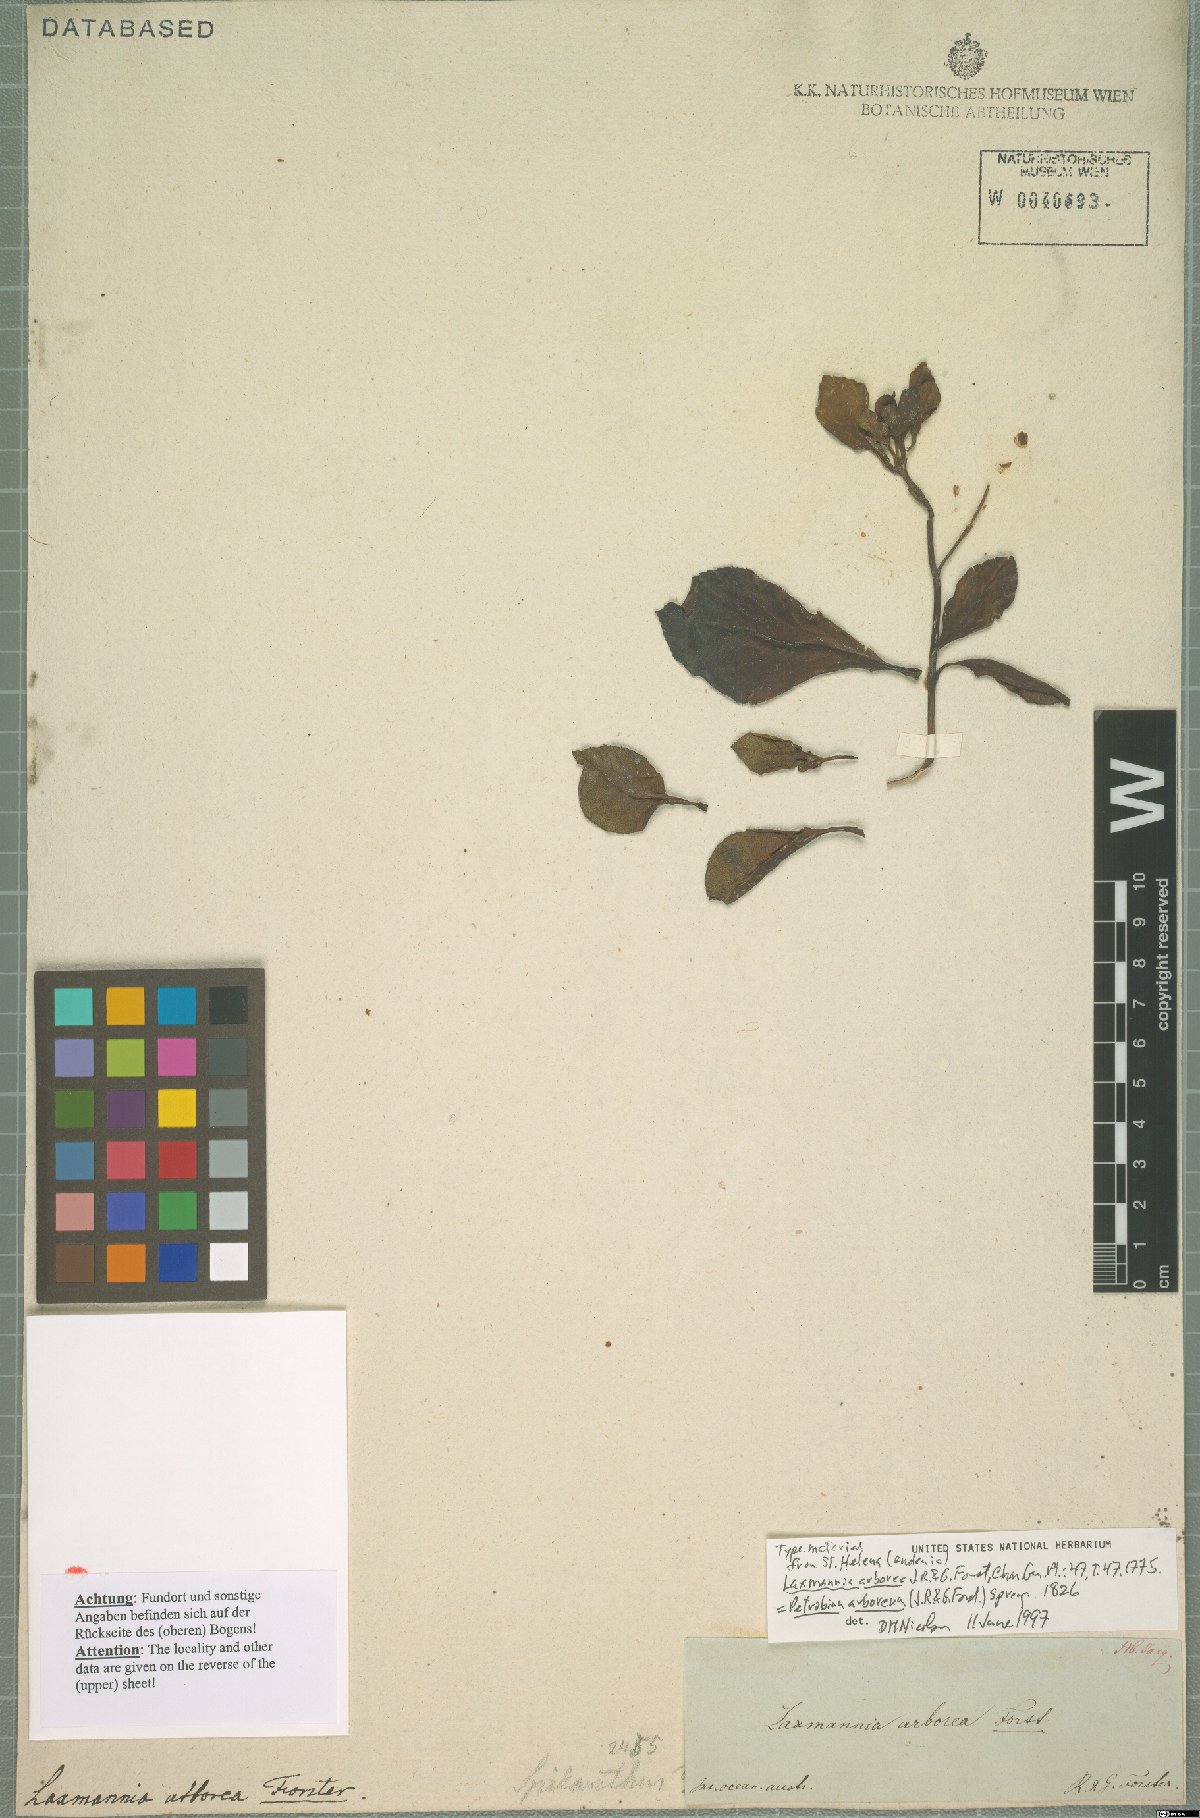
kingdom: Plantae
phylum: Tracheophyta
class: Magnoliopsida
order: Asterales
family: Asteraceae
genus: Petrobium
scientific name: Petrobium arboreum
